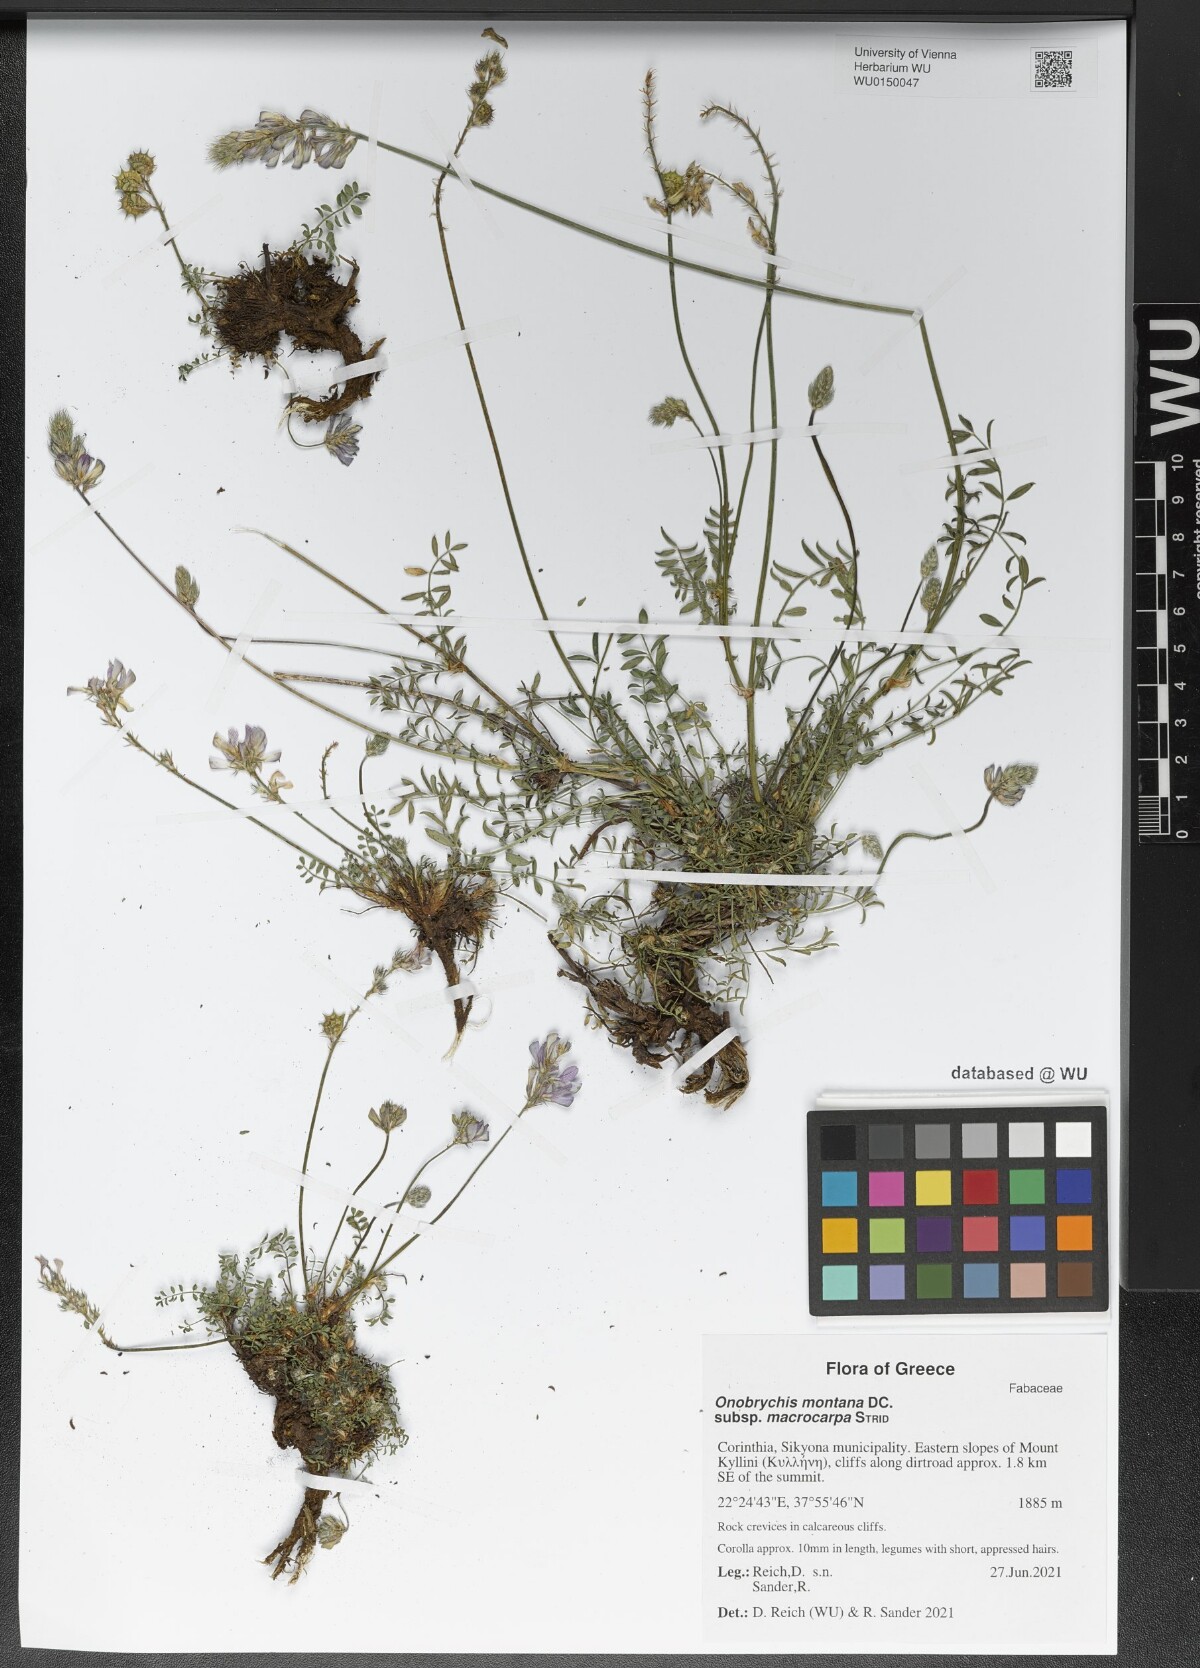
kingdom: Plantae
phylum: Tracheophyta
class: Magnoliopsida
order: Fabales
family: Fabaceae
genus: Onobrychis
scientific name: Onobrychis montana
